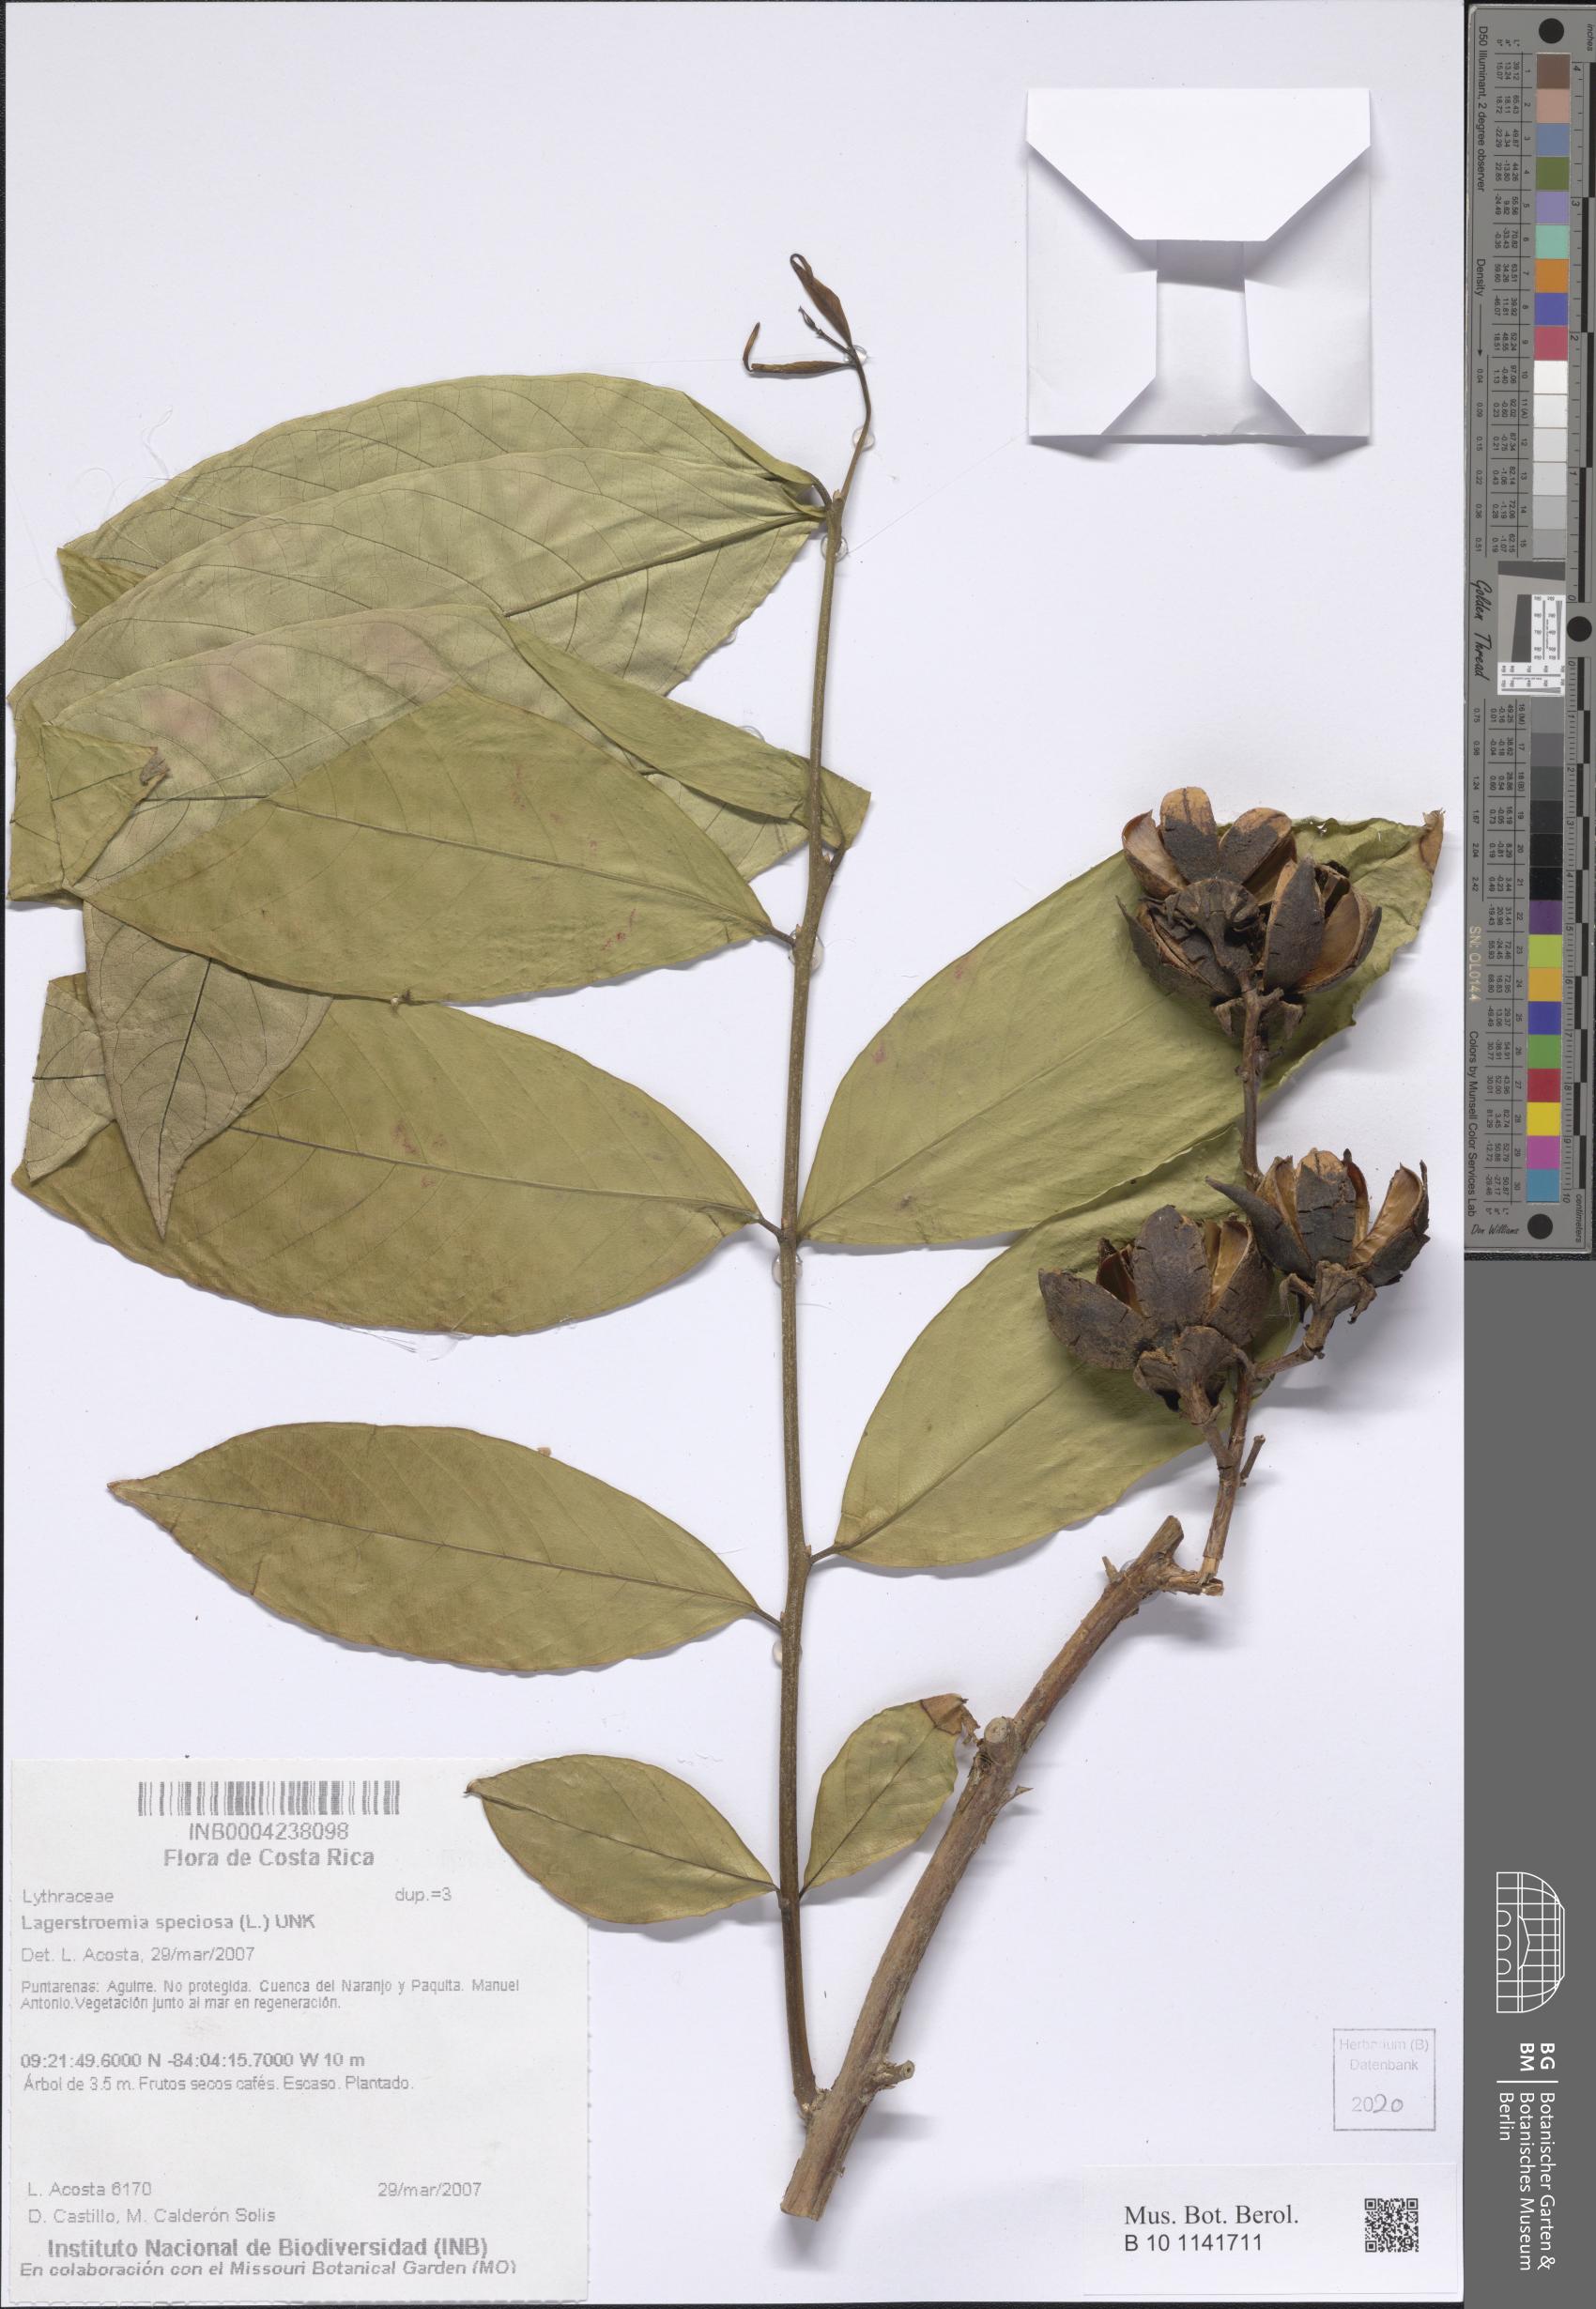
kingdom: Plantae
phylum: Tracheophyta
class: Magnoliopsida
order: Myrtales
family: Lythraceae
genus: Lagerstroemia
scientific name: Lagerstroemia speciosa
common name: Queen's crape-myrtle
